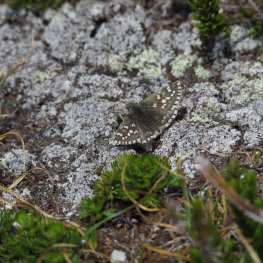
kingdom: Animalia
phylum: Arthropoda
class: Insecta
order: Lepidoptera
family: Hesperiidae
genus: Pyrgus
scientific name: Pyrgus ruralis
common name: Two-banded Checkered-Skipper
